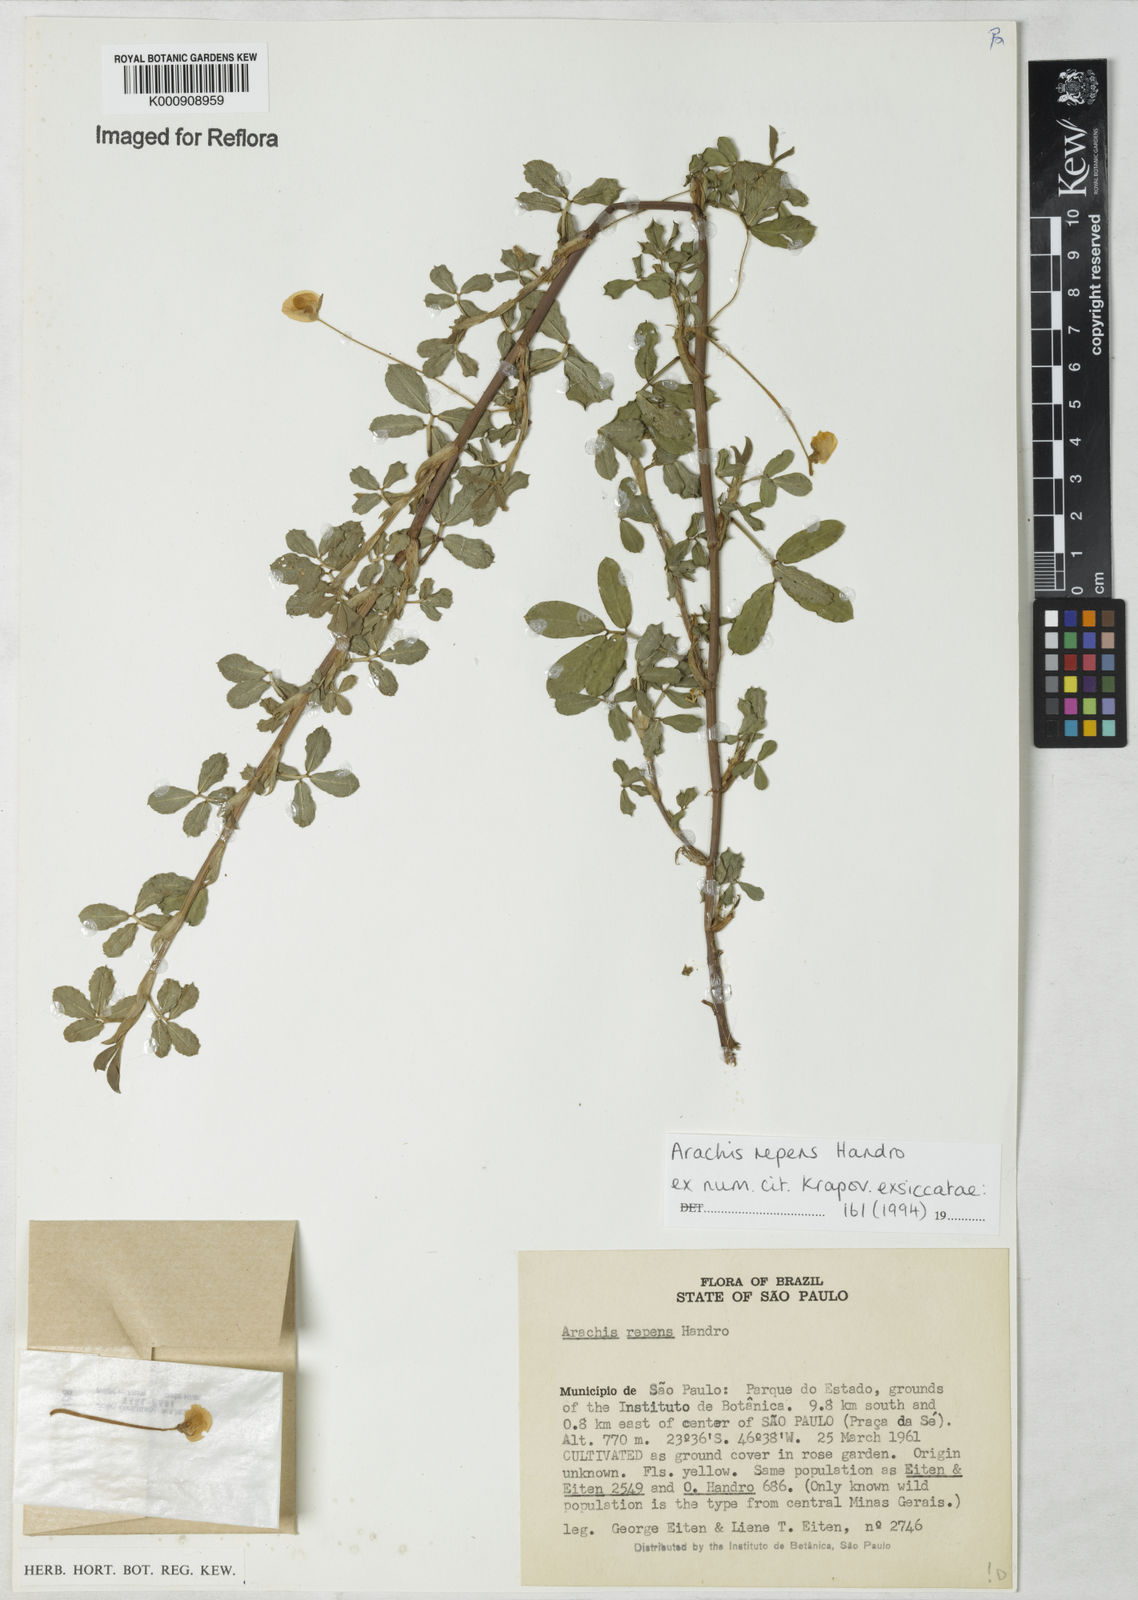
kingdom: Plantae
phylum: Tracheophyta
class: Magnoliopsida
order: Fabales
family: Fabaceae
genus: Arachis
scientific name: Arachis repens
